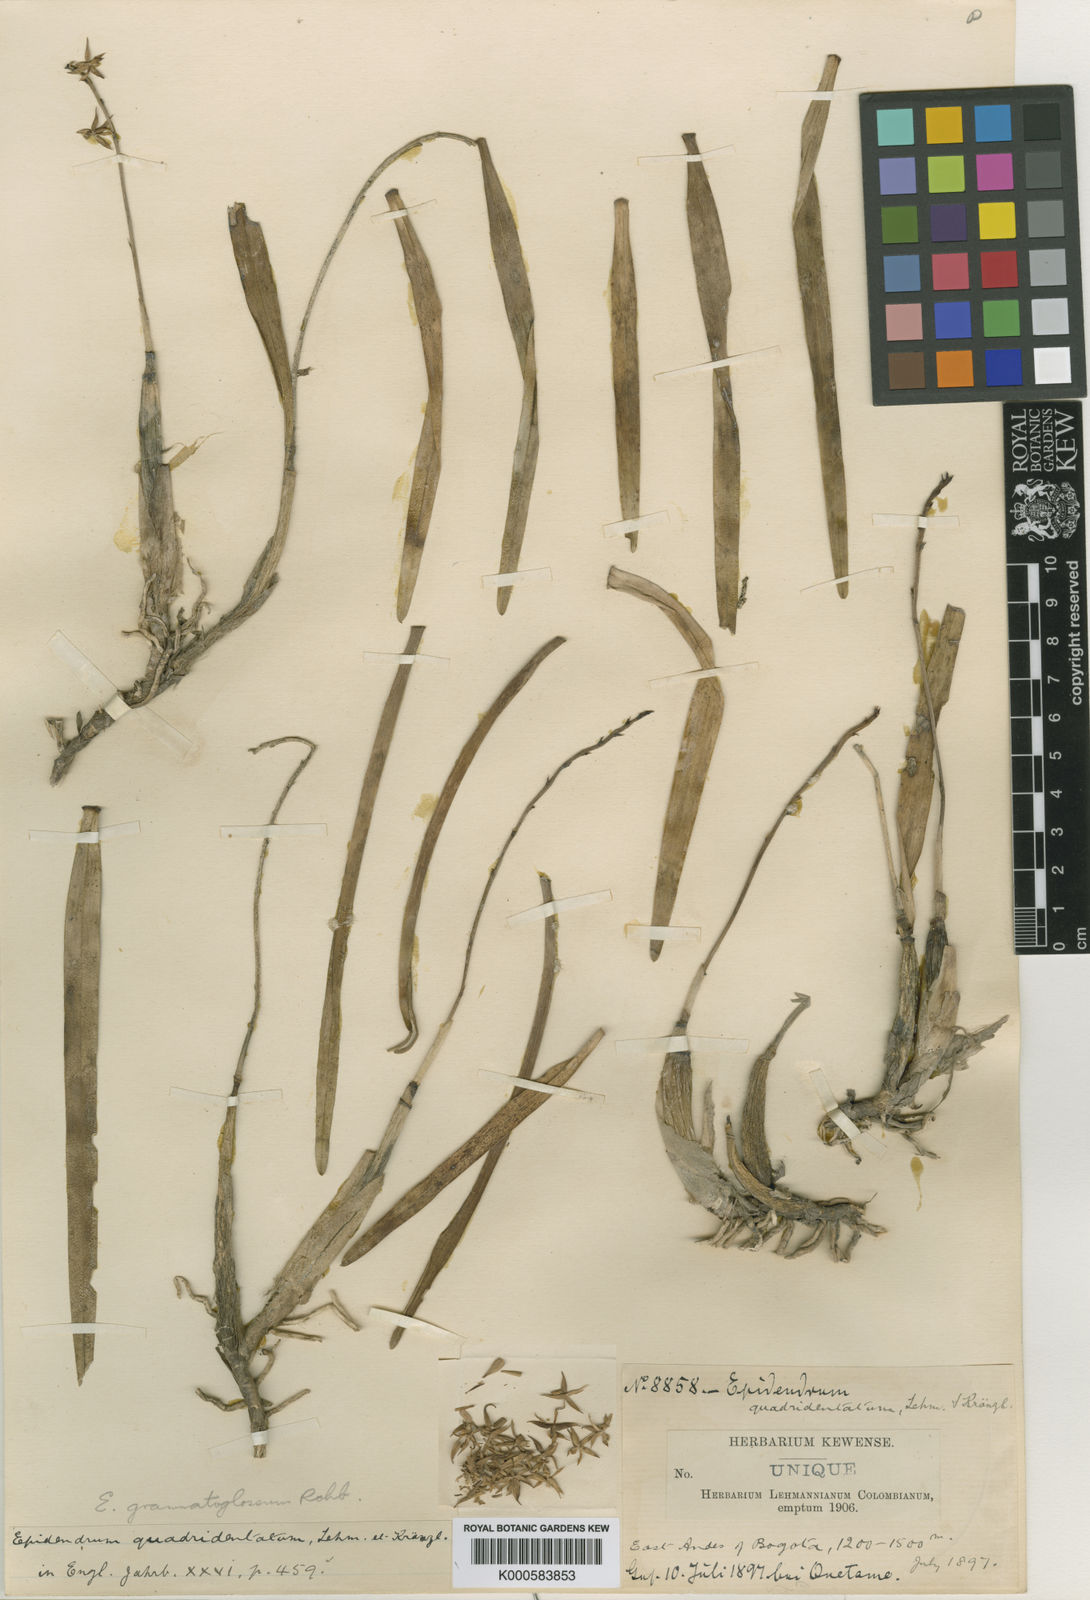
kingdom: Plantae
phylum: Tracheophyta
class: Liliopsida
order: Asparagales
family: Orchidaceae
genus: Prosthechea
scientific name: Prosthechea grammatoglossa
